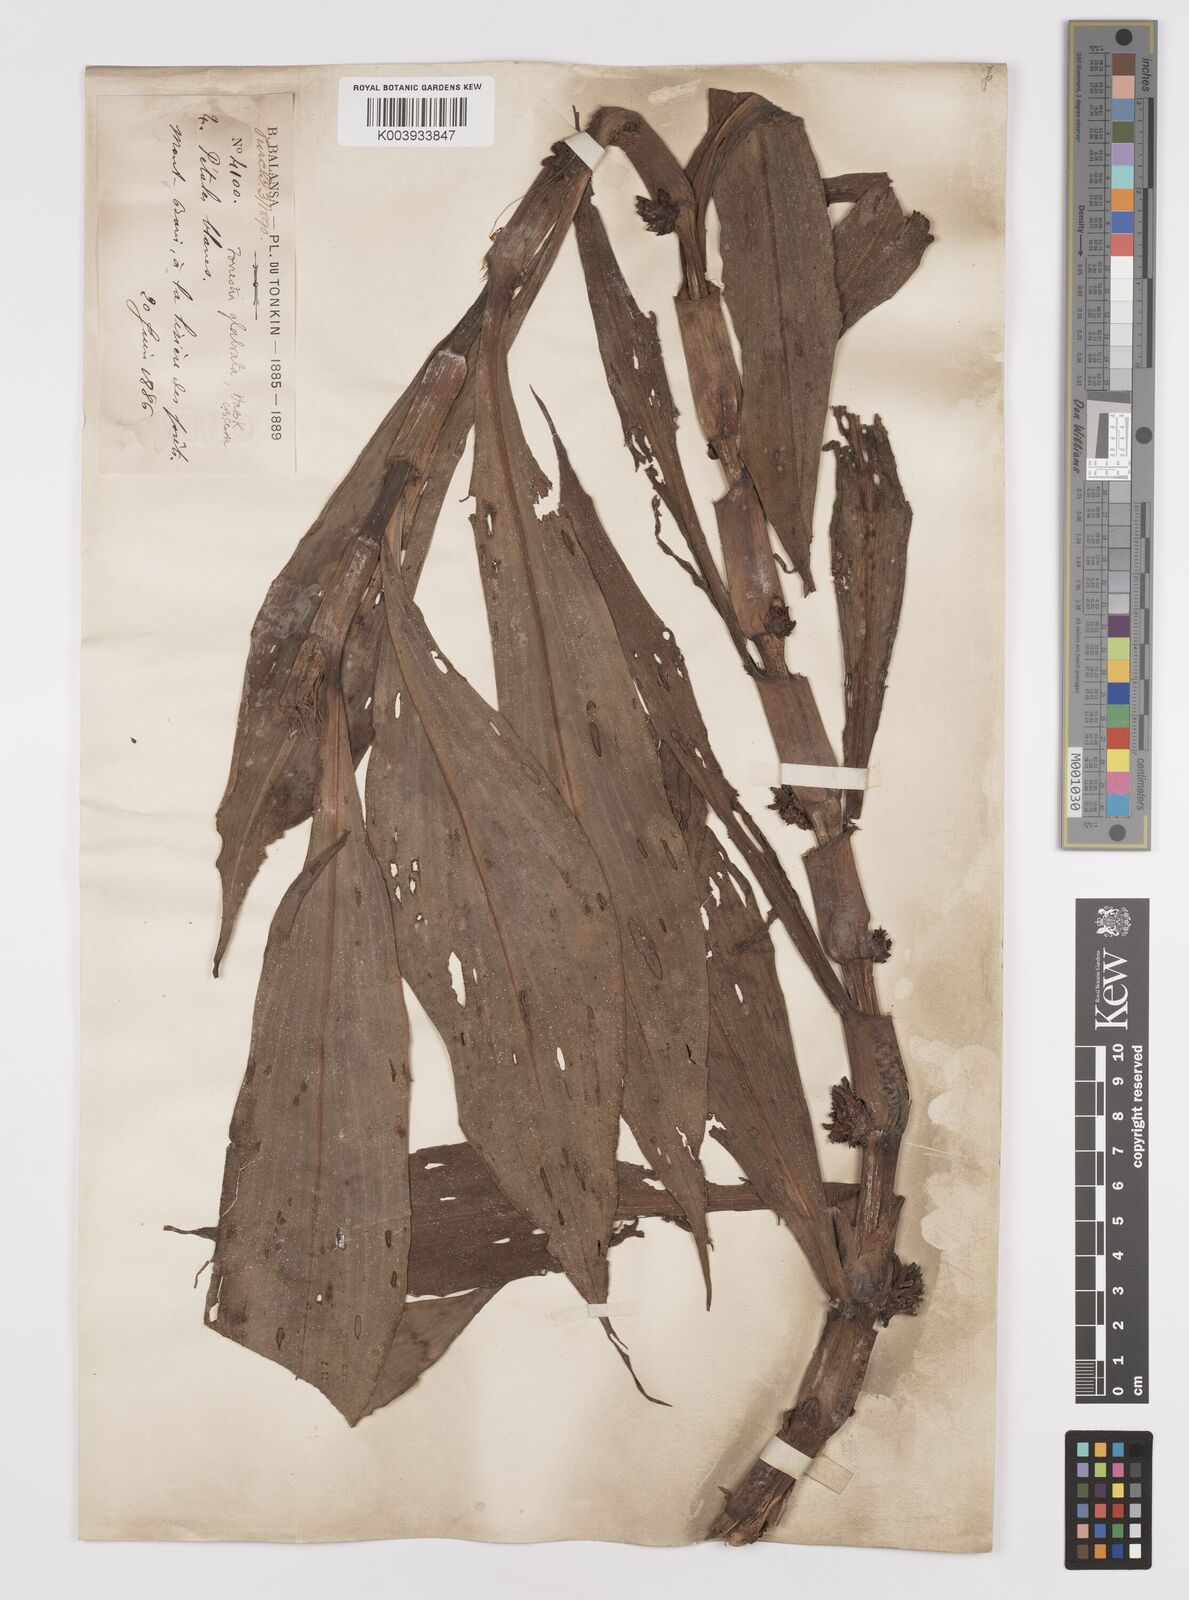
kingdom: Plantae
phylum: Tracheophyta
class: Liliopsida
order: Commelinales
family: Commelinaceae
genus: Amischotolype
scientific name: Amischotolype glabrata
